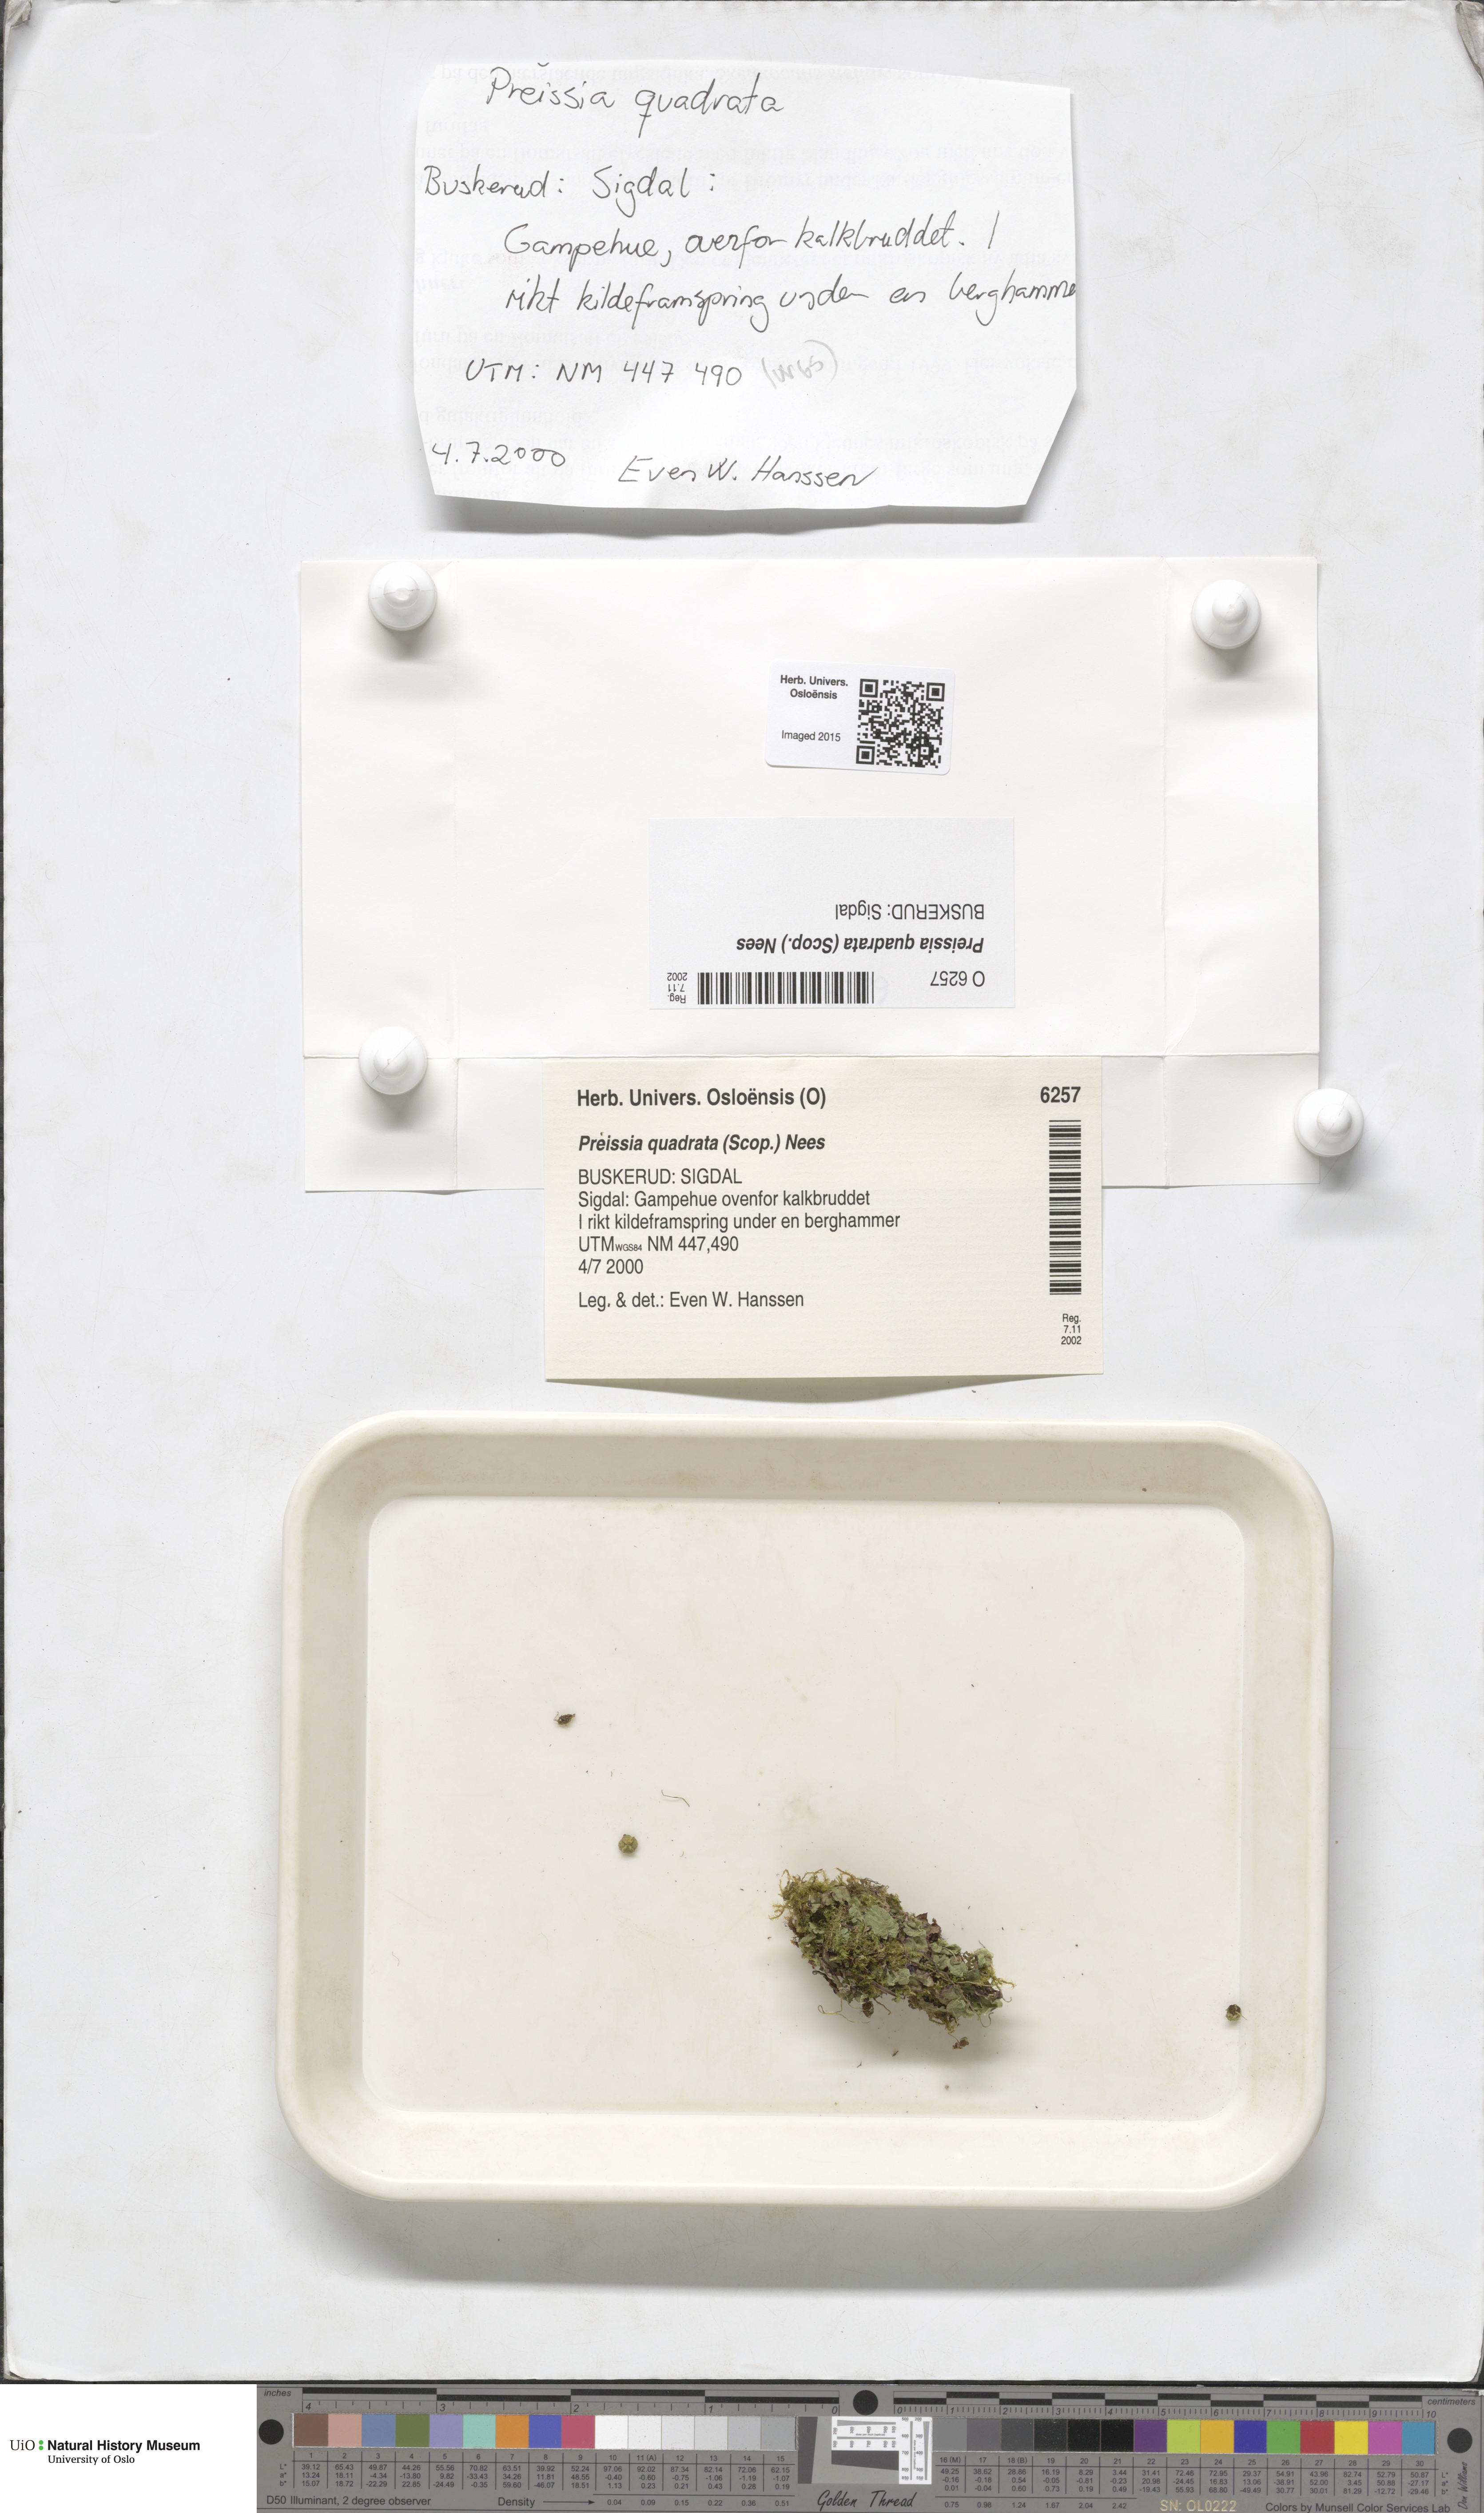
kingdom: Plantae
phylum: Marchantiophyta
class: Marchantiopsida
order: Marchantiales
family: Marchantiaceae
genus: Marchantia
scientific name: Marchantia quadrata
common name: Narrow mushroom-headed liverwort
